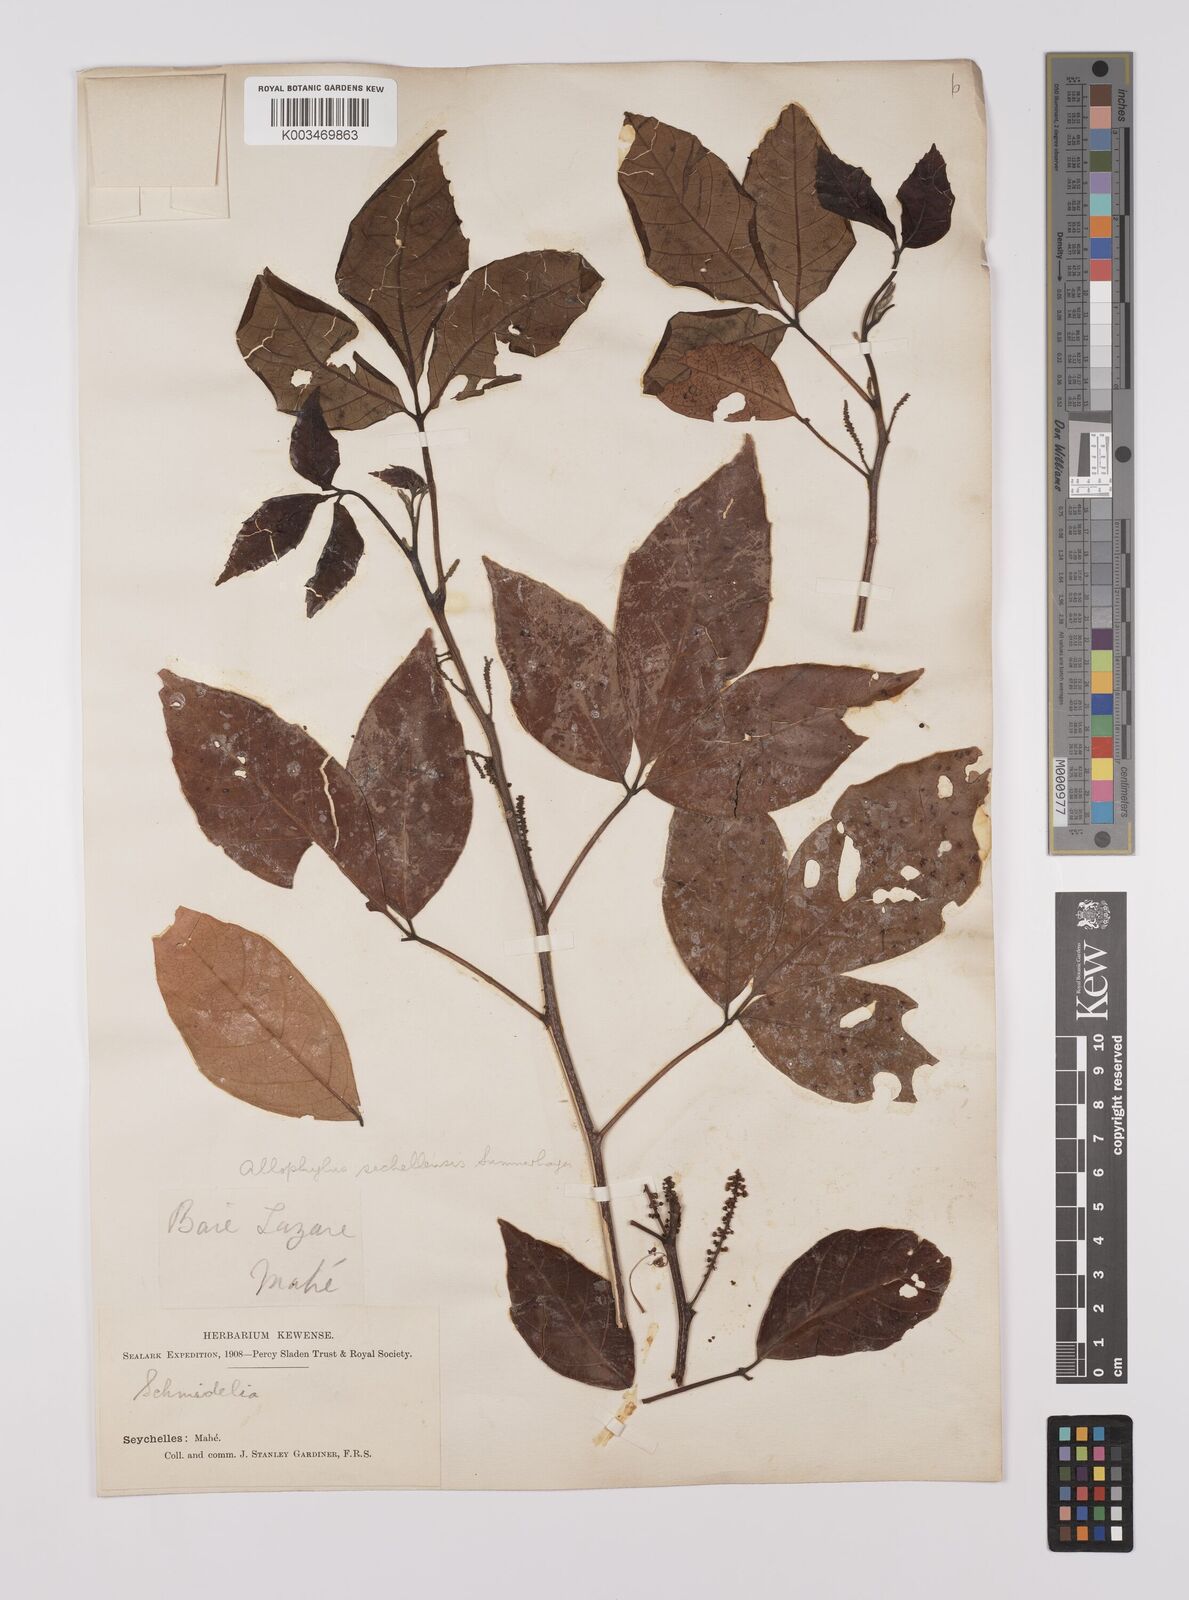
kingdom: Plantae
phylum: Tracheophyta
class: Magnoliopsida
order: Sapindales
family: Sapindaceae
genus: Allophylus
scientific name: Allophylus sechellensis
